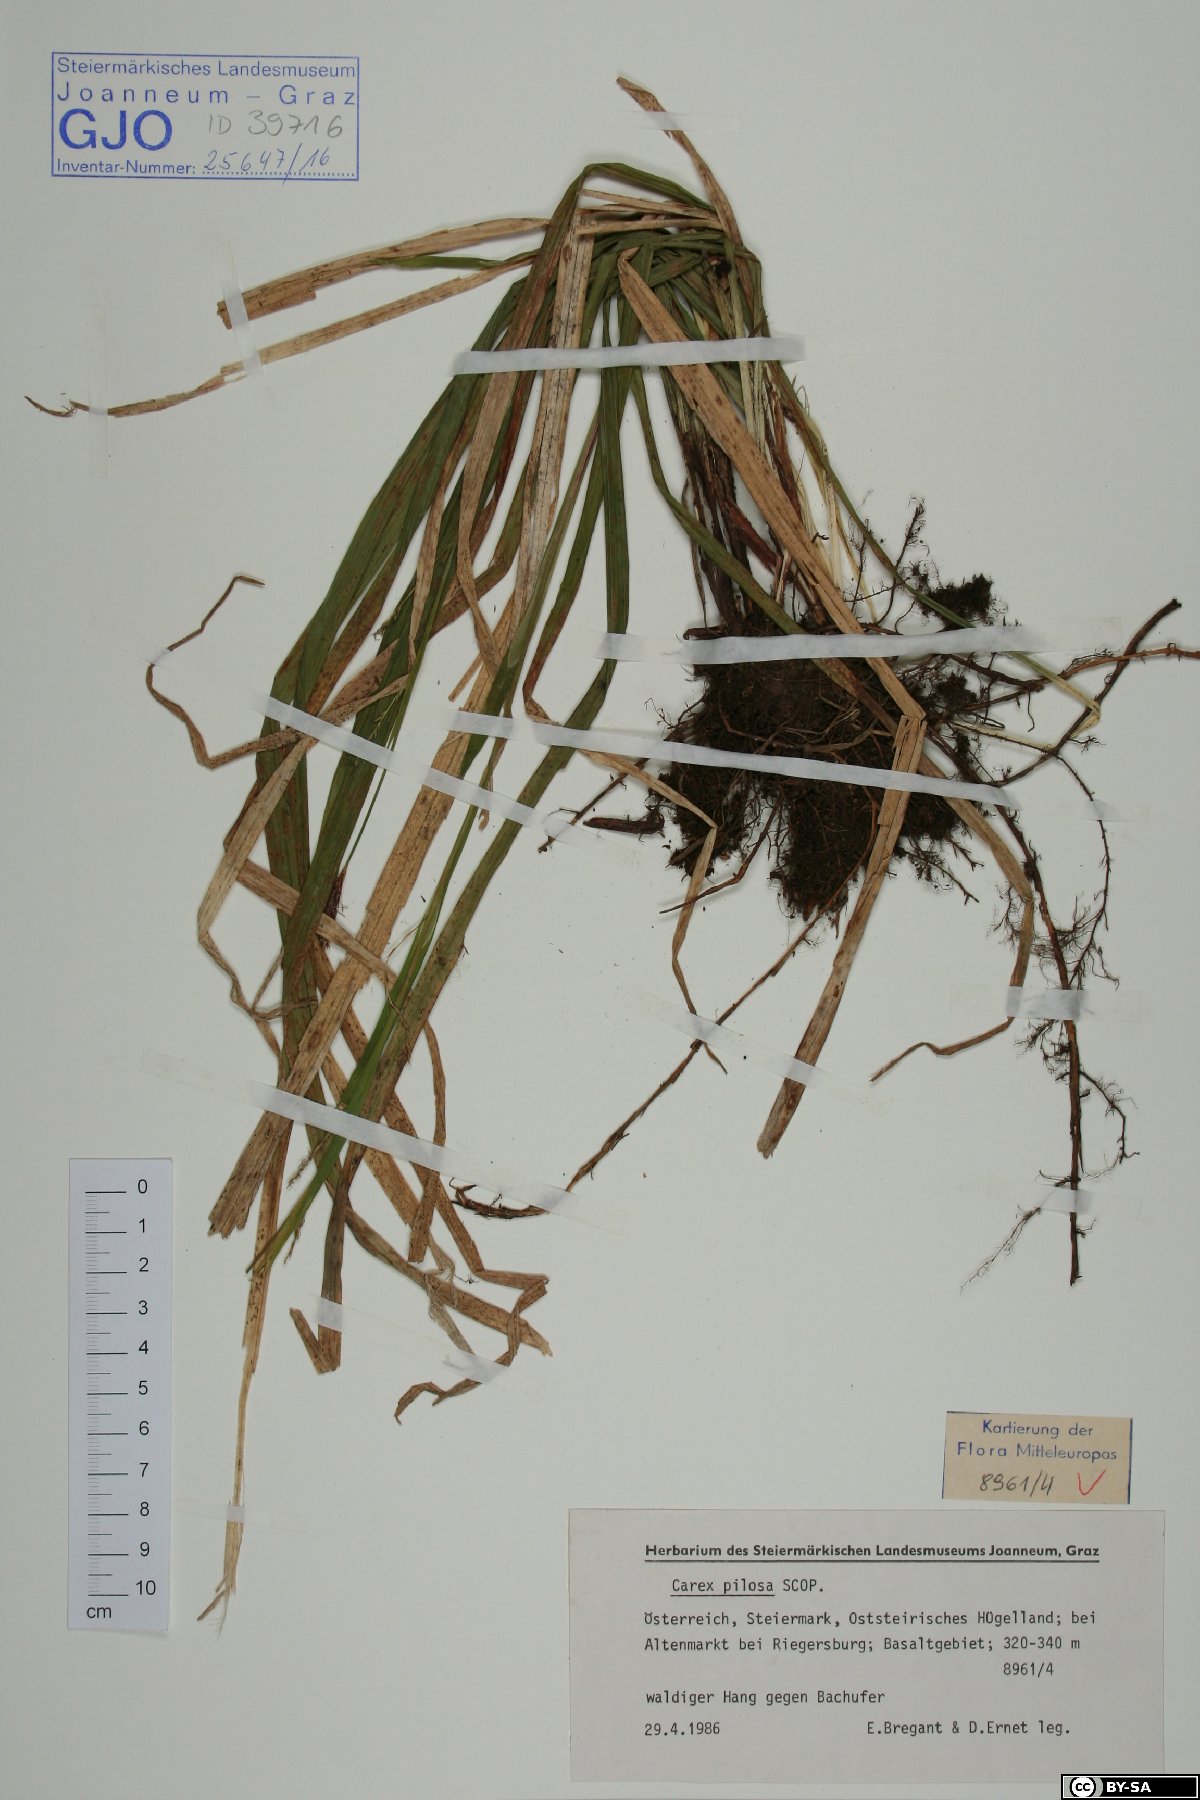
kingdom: Plantae
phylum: Tracheophyta
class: Liliopsida
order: Poales
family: Cyperaceae
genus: Carex
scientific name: Carex pilosa
